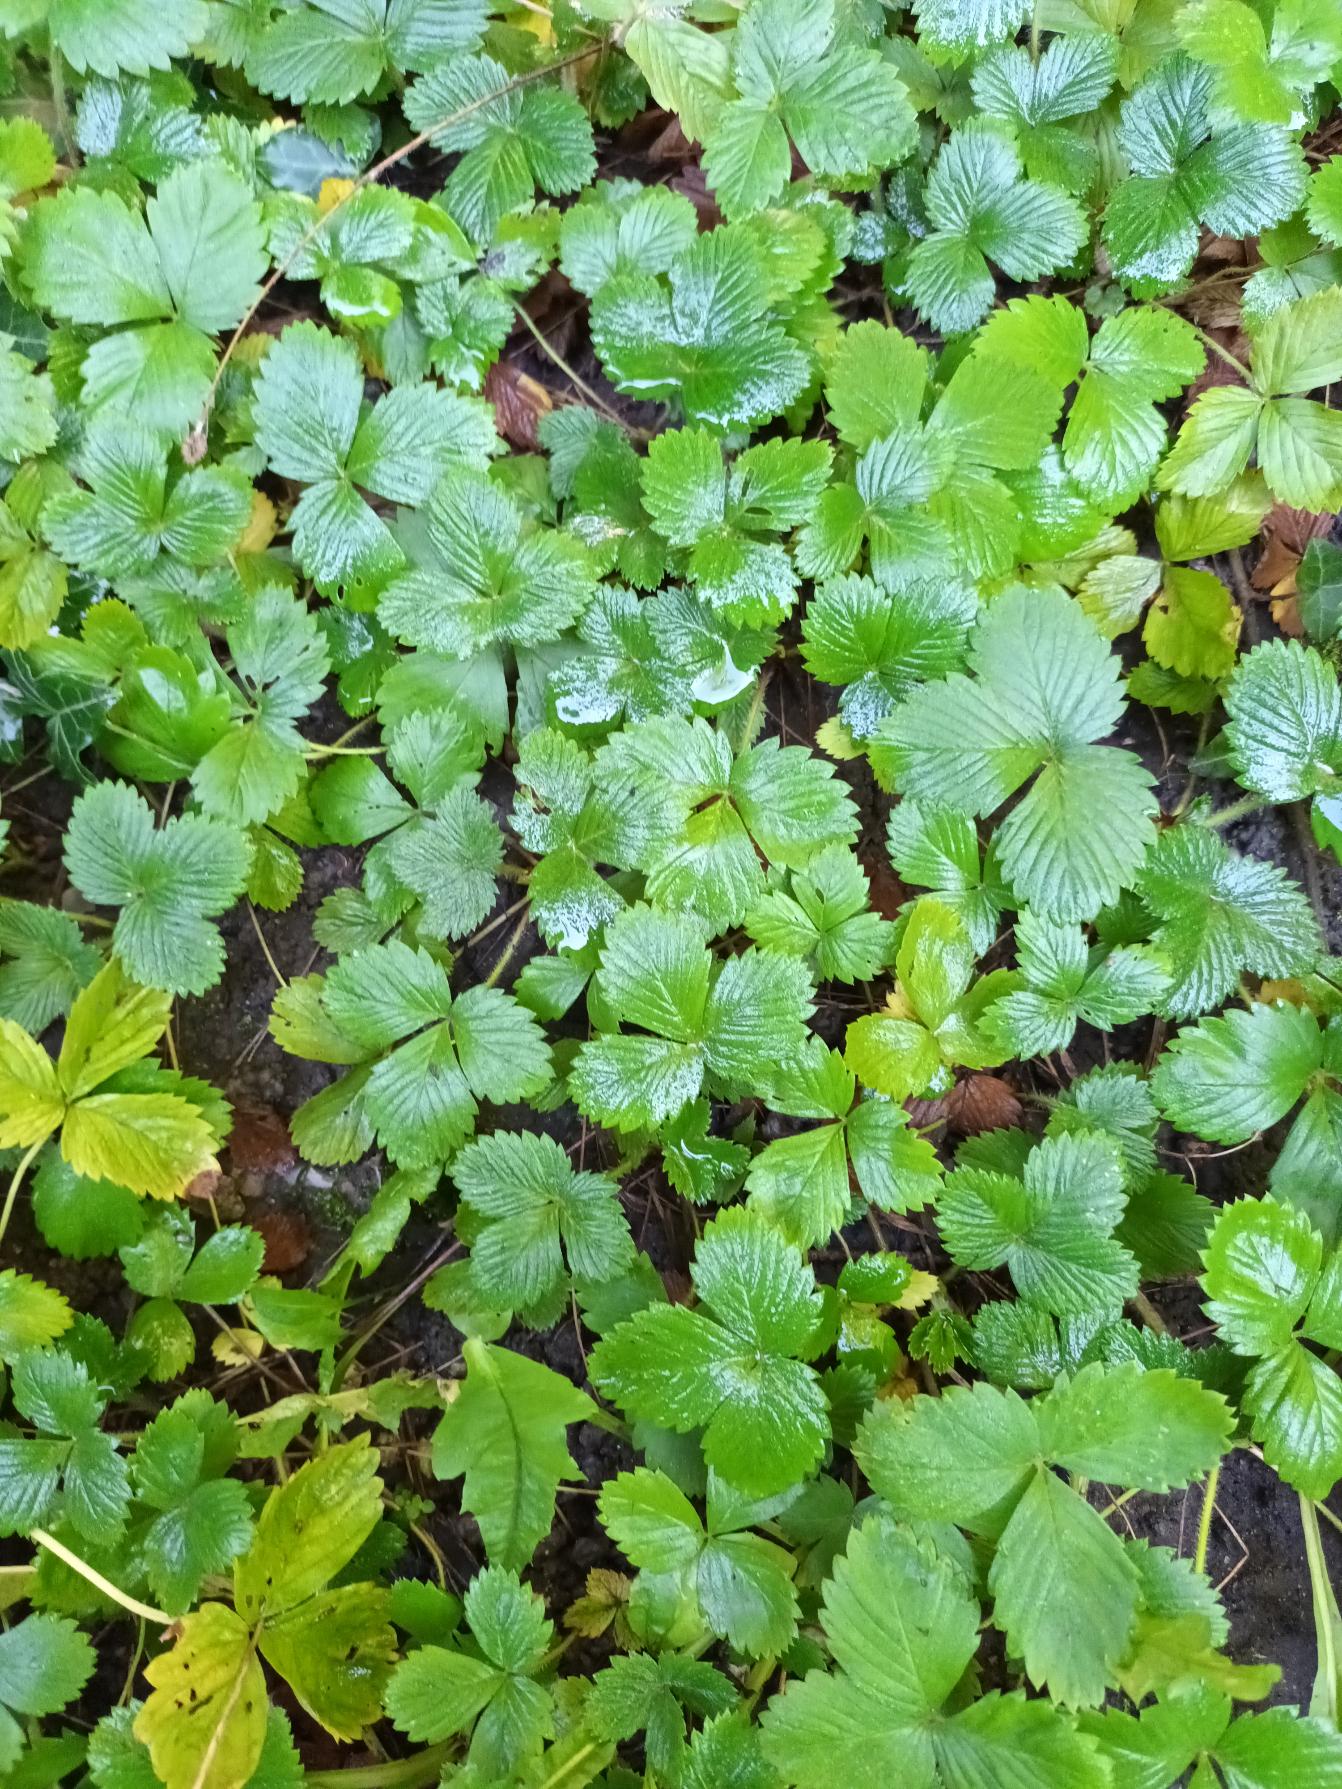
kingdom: Plantae
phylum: Tracheophyta
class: Magnoliopsida
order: Rosales
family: Rosaceae
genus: Fragaria
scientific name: Fragaria vesca
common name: Skov-jordbær
